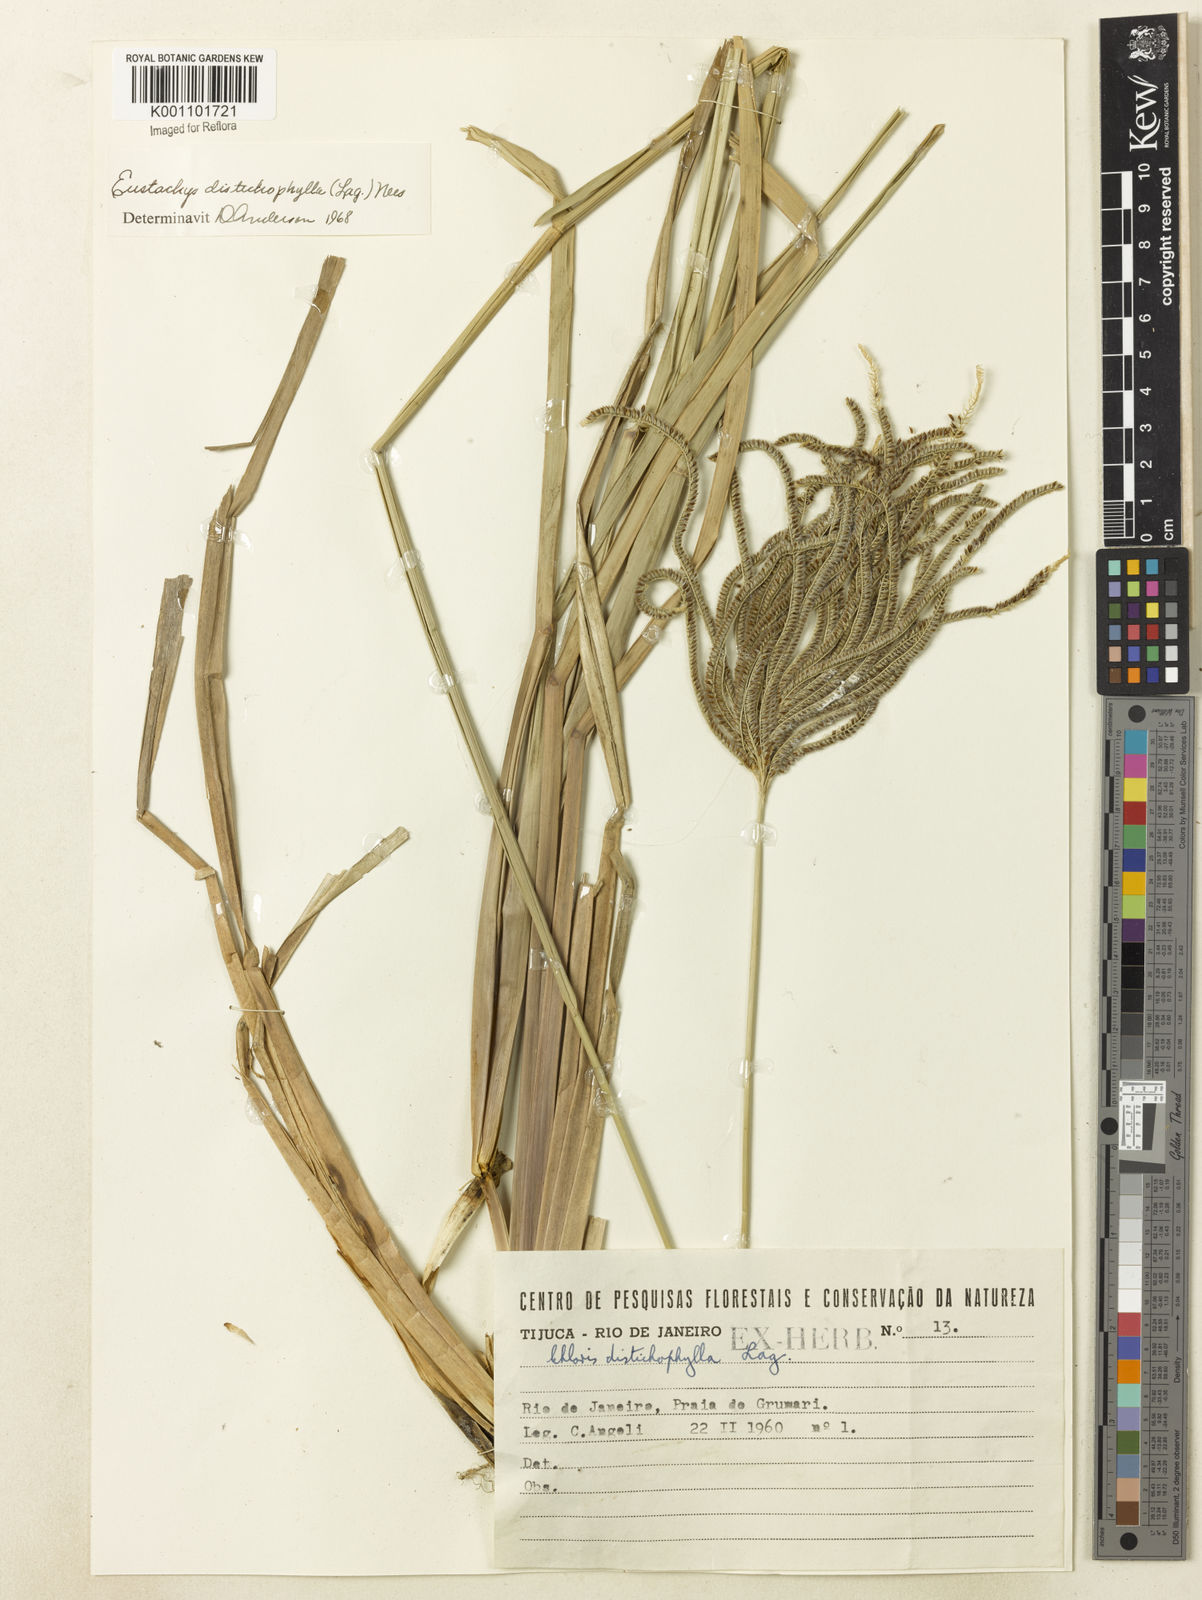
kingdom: Plantae
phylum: Tracheophyta
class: Liliopsida
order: Poales
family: Poaceae
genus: Eustachys
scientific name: Eustachys distichophylla
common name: Weeping fingergrass
